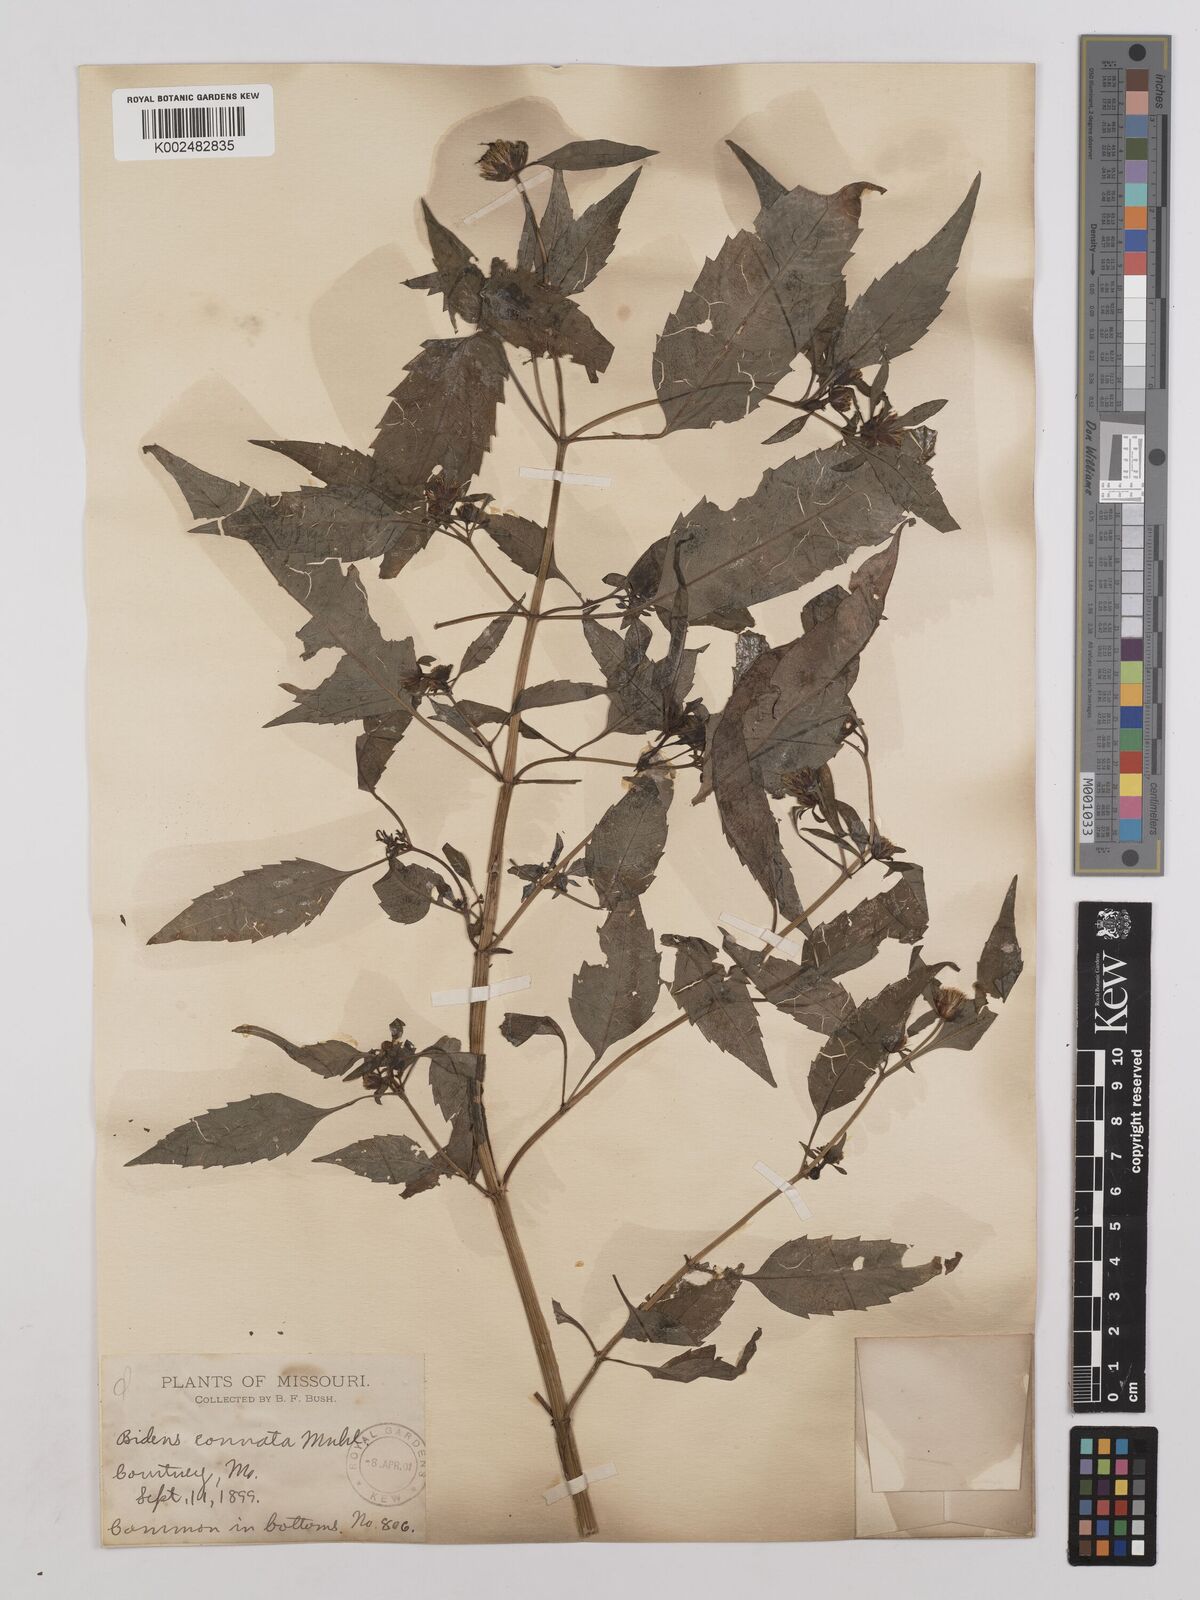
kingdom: Plantae
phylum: Tracheophyta
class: Magnoliopsida
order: Asterales
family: Asteraceae
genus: Bidens
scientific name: Bidens connata
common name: London bur-marigold
